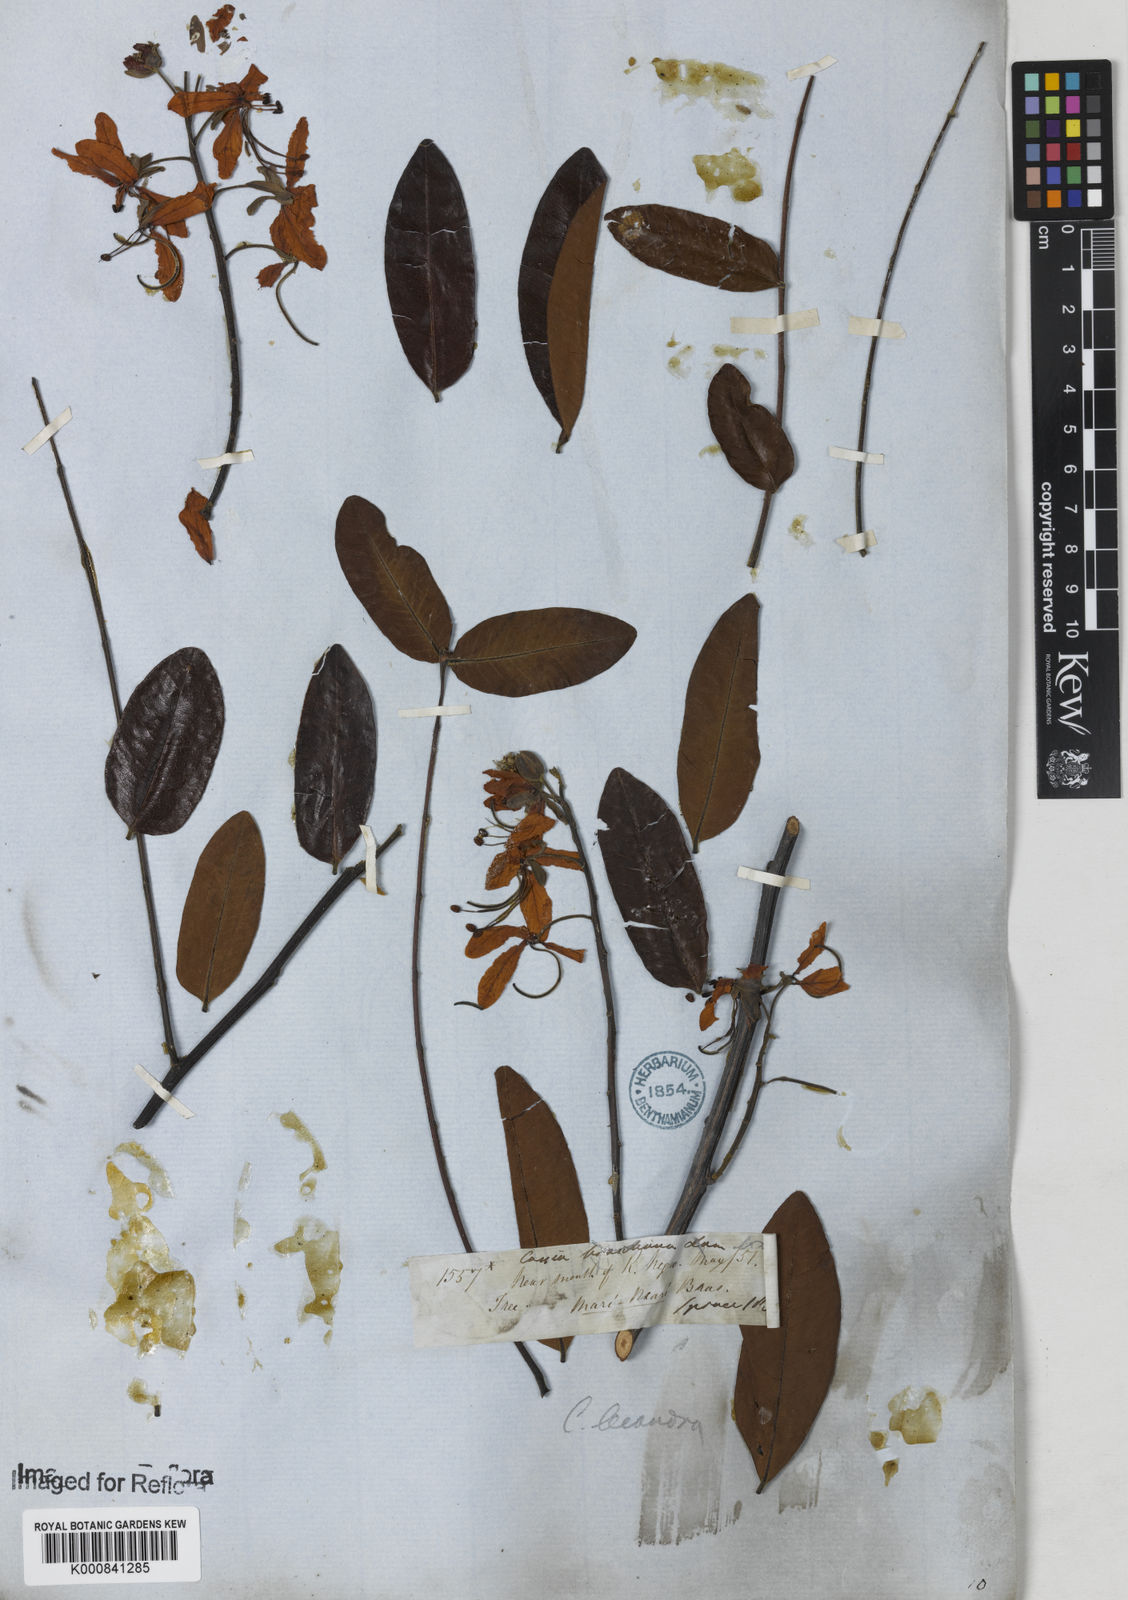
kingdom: Plantae
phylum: Tracheophyta
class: Magnoliopsida
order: Fabales
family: Fabaceae
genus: Cassia
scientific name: Cassia leiandra
